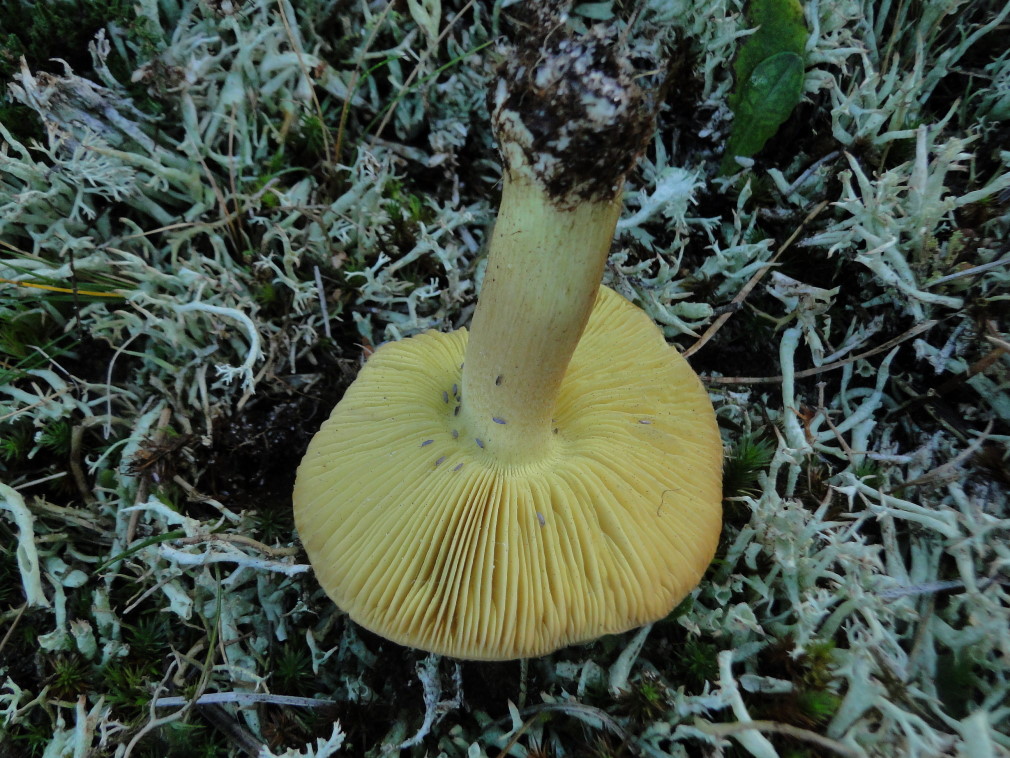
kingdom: Fungi
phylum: Basidiomycota
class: Agaricomycetes
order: Agaricales
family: Tricholomataceae
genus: Tricholoma
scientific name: Tricholoma equestre
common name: ægte ridderhat
